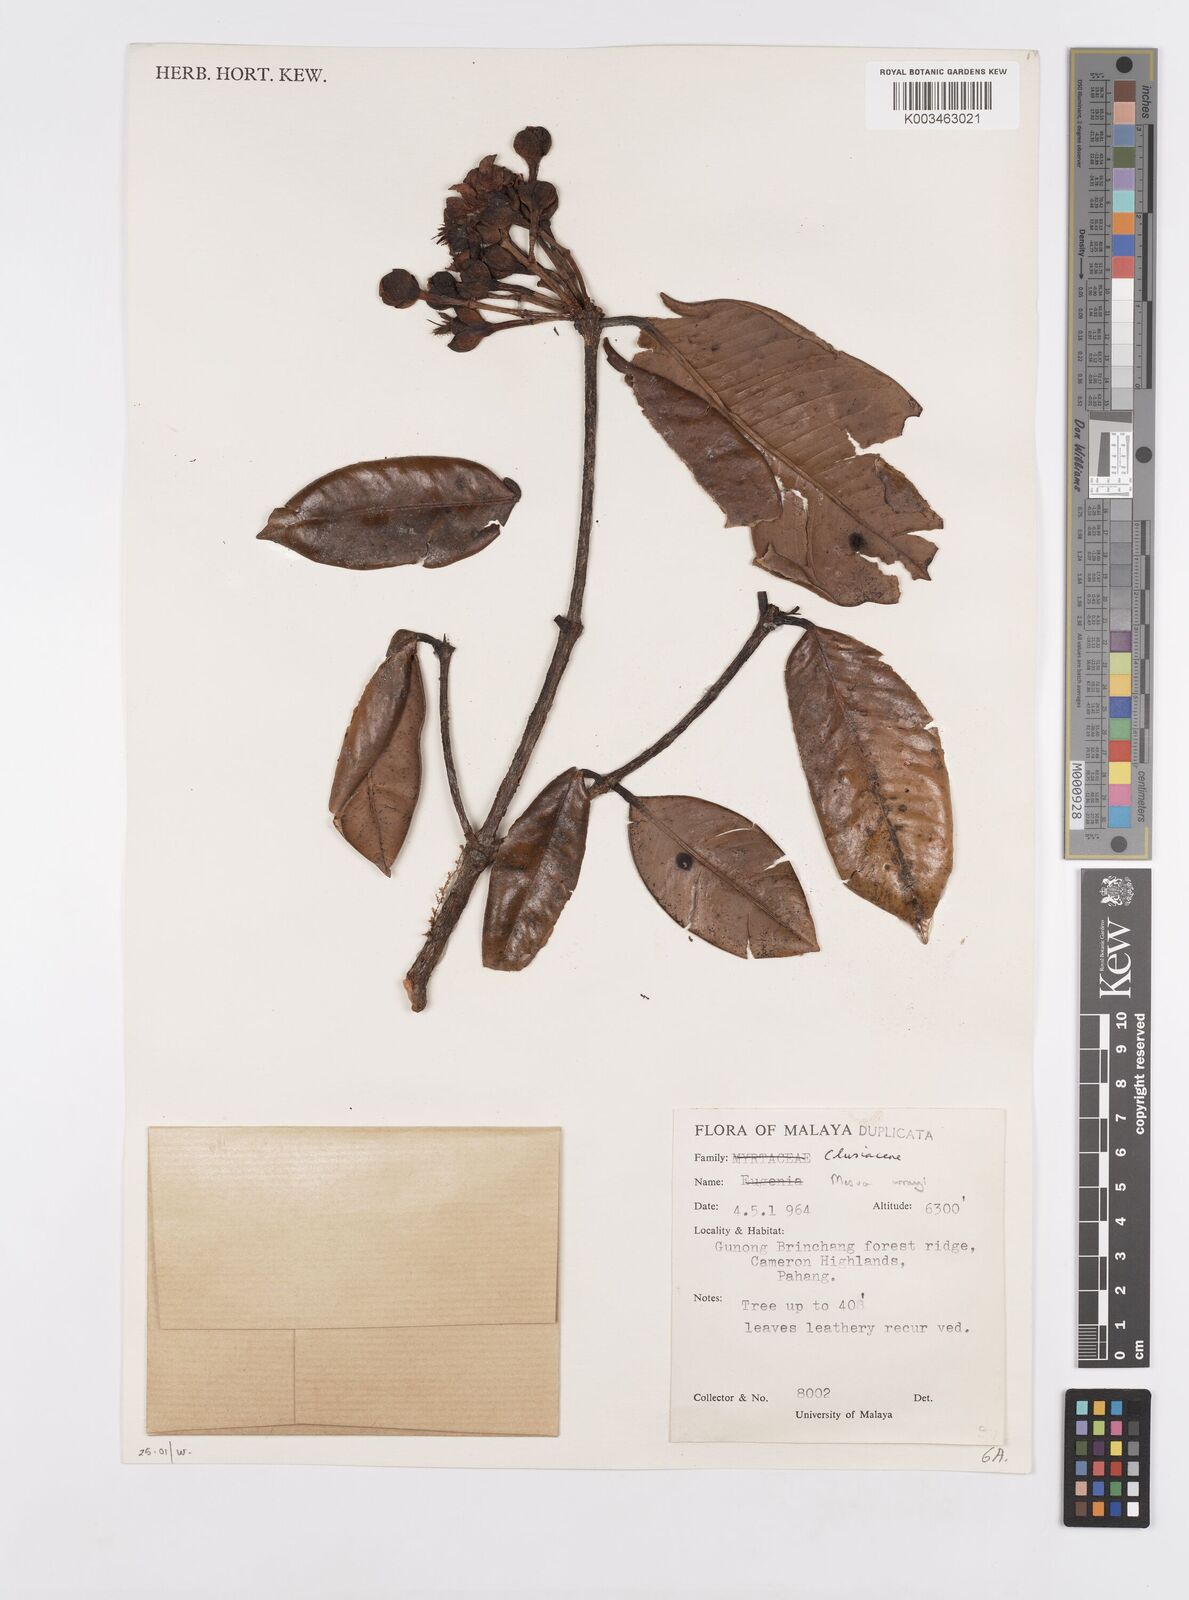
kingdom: Plantae
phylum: Tracheophyta
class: Magnoliopsida
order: Malpighiales
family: Calophyllaceae
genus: Kayea
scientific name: Kayea wrayi
